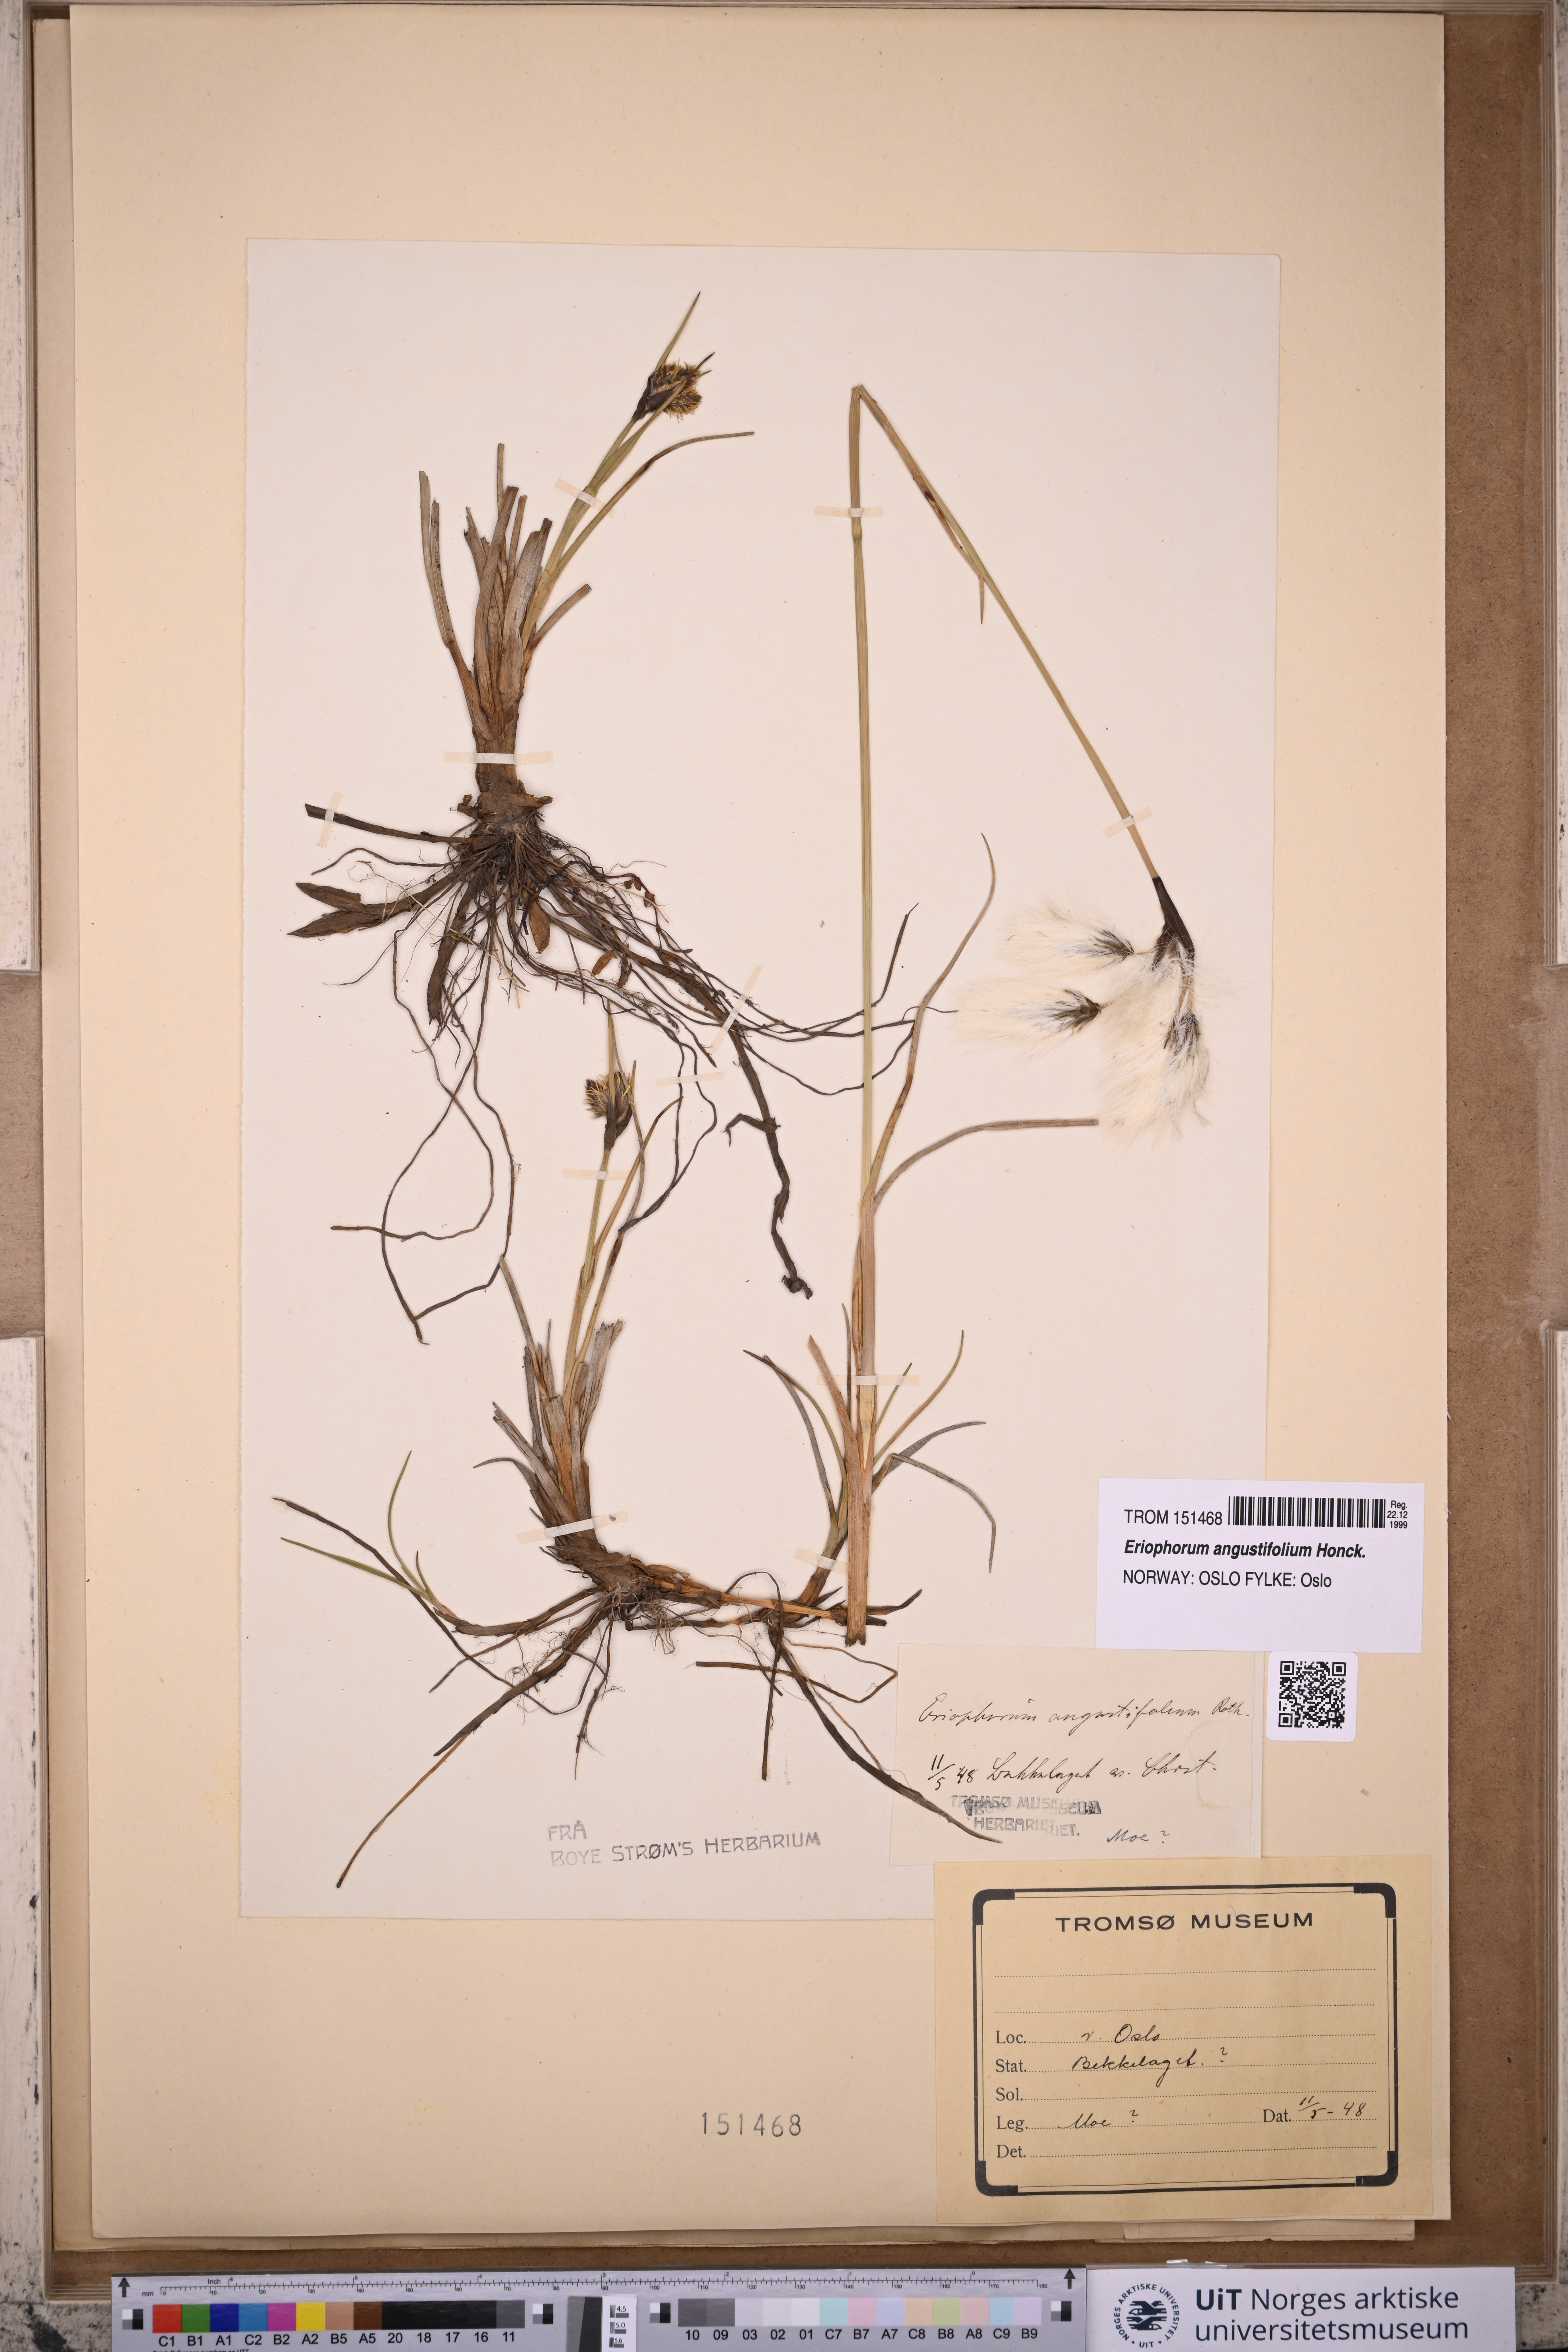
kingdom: Plantae
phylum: Tracheophyta
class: Liliopsida
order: Poales
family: Cyperaceae
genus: Eriophorum
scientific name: Eriophorum angustifolium
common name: Common cottongrass
